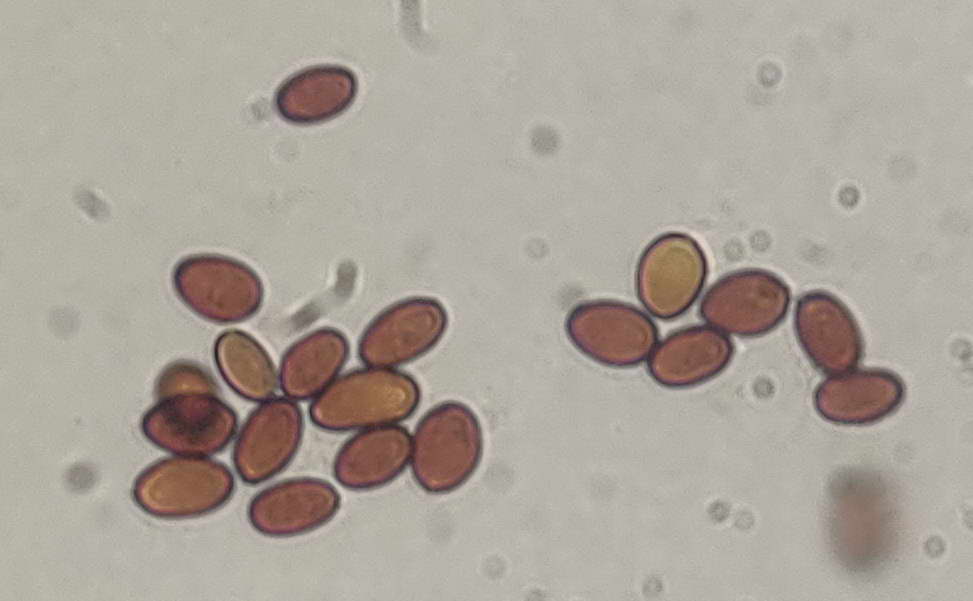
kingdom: Fungi
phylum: Basidiomycota
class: Agaricomycetes
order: Boletales
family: Coniophoraceae
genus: Coniophora
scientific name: Coniophora arida
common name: tynd tømmersvamp
